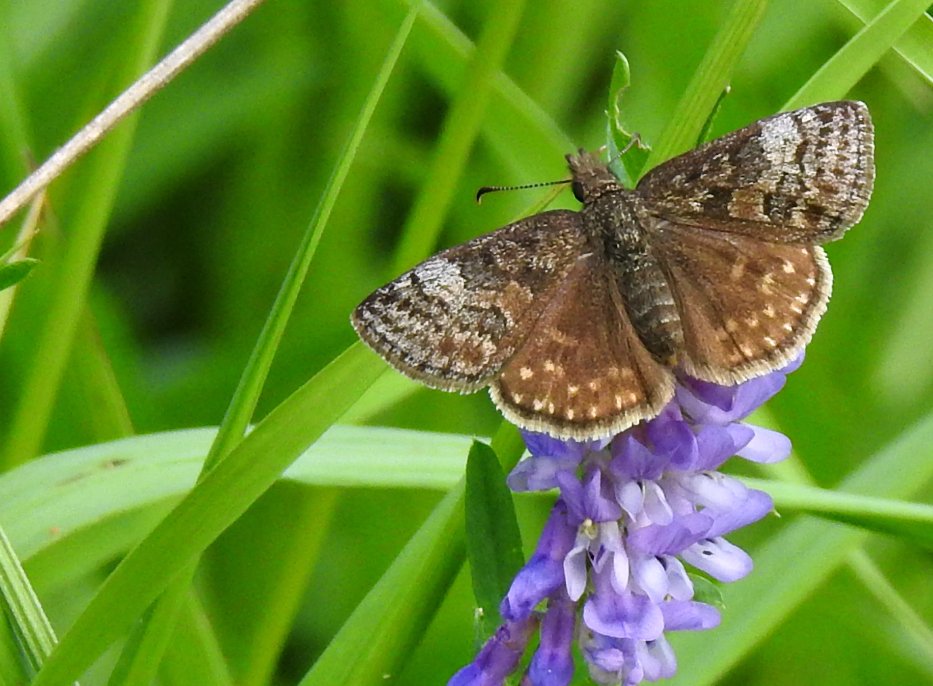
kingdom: Animalia
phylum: Arthropoda
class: Insecta
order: Lepidoptera
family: Hesperiidae
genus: Erynnis
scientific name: Erynnis icelus
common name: Dreamy Duskywing
